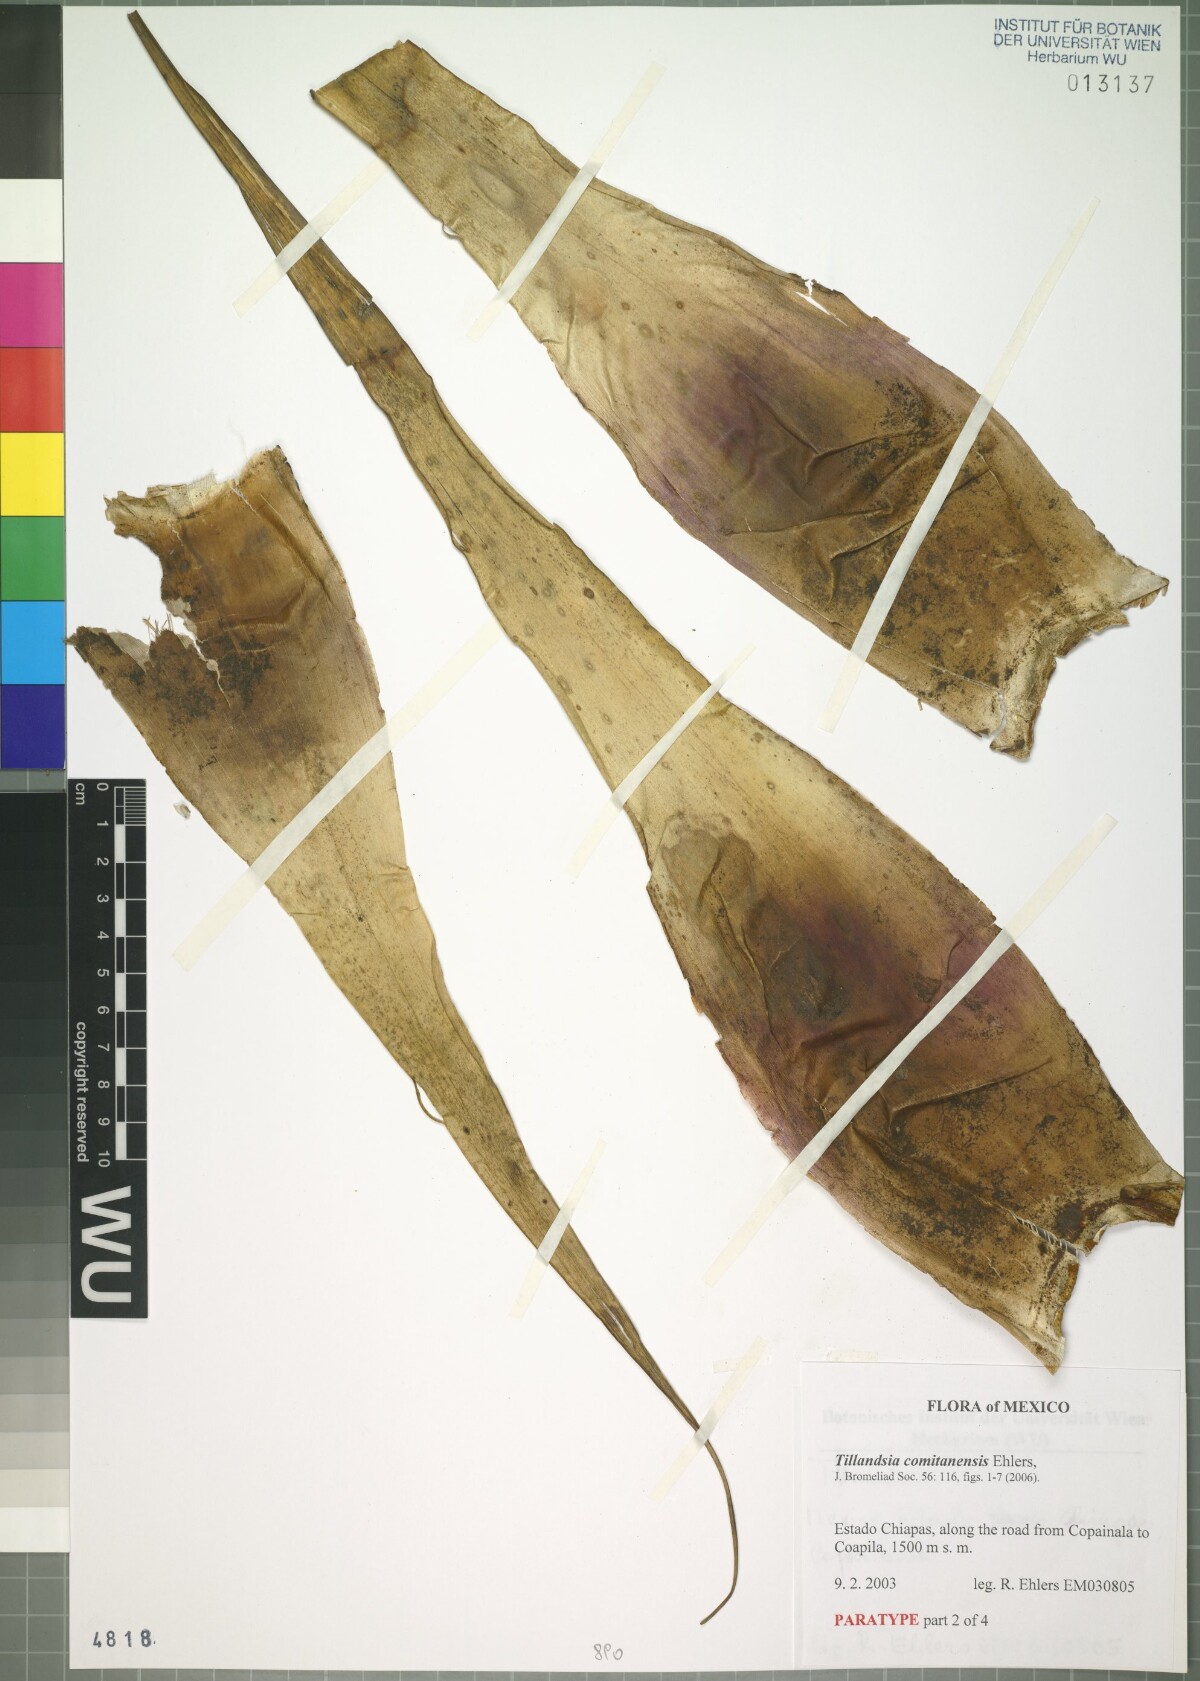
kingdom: Plantae
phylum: Tracheophyta
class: Liliopsida
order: Poales
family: Bromeliaceae
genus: Tillandsia
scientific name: Tillandsia comitanensis
